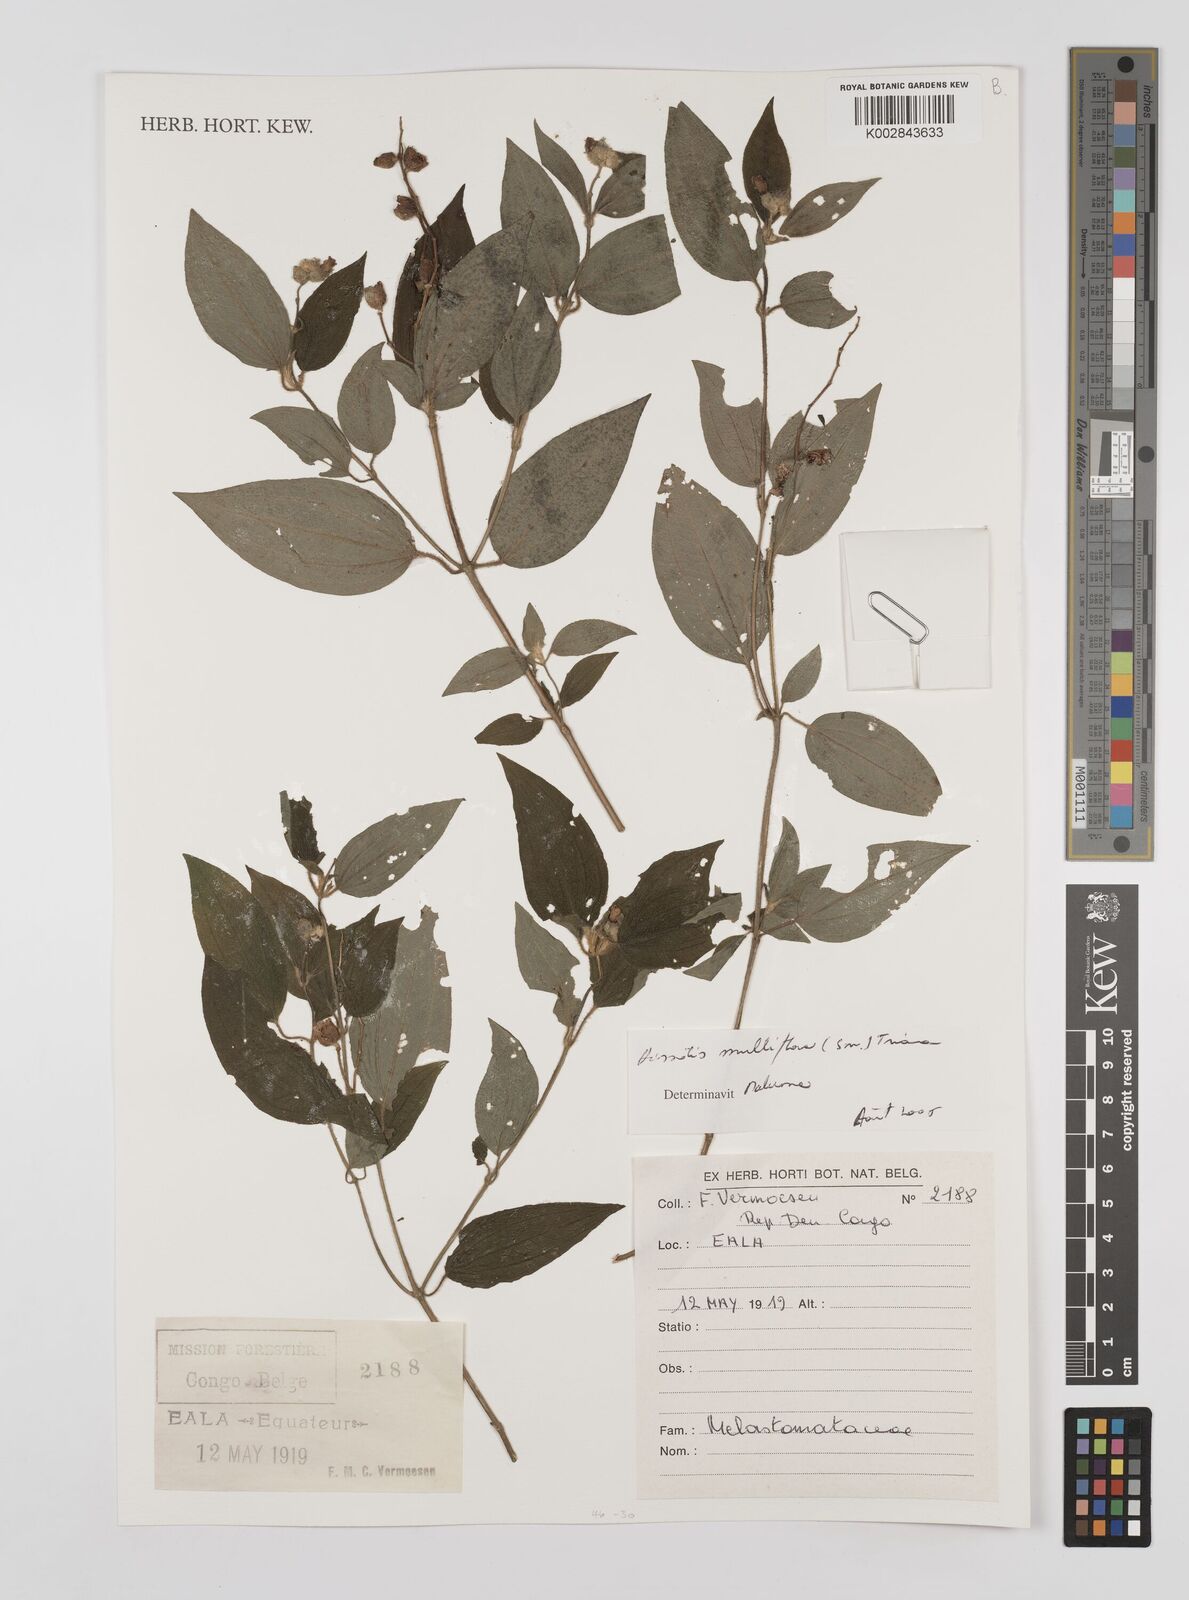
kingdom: Plantae
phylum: Tracheophyta
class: Magnoliopsida
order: Myrtales
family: Melastomataceae
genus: Dupineta
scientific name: Dupineta multiflora
